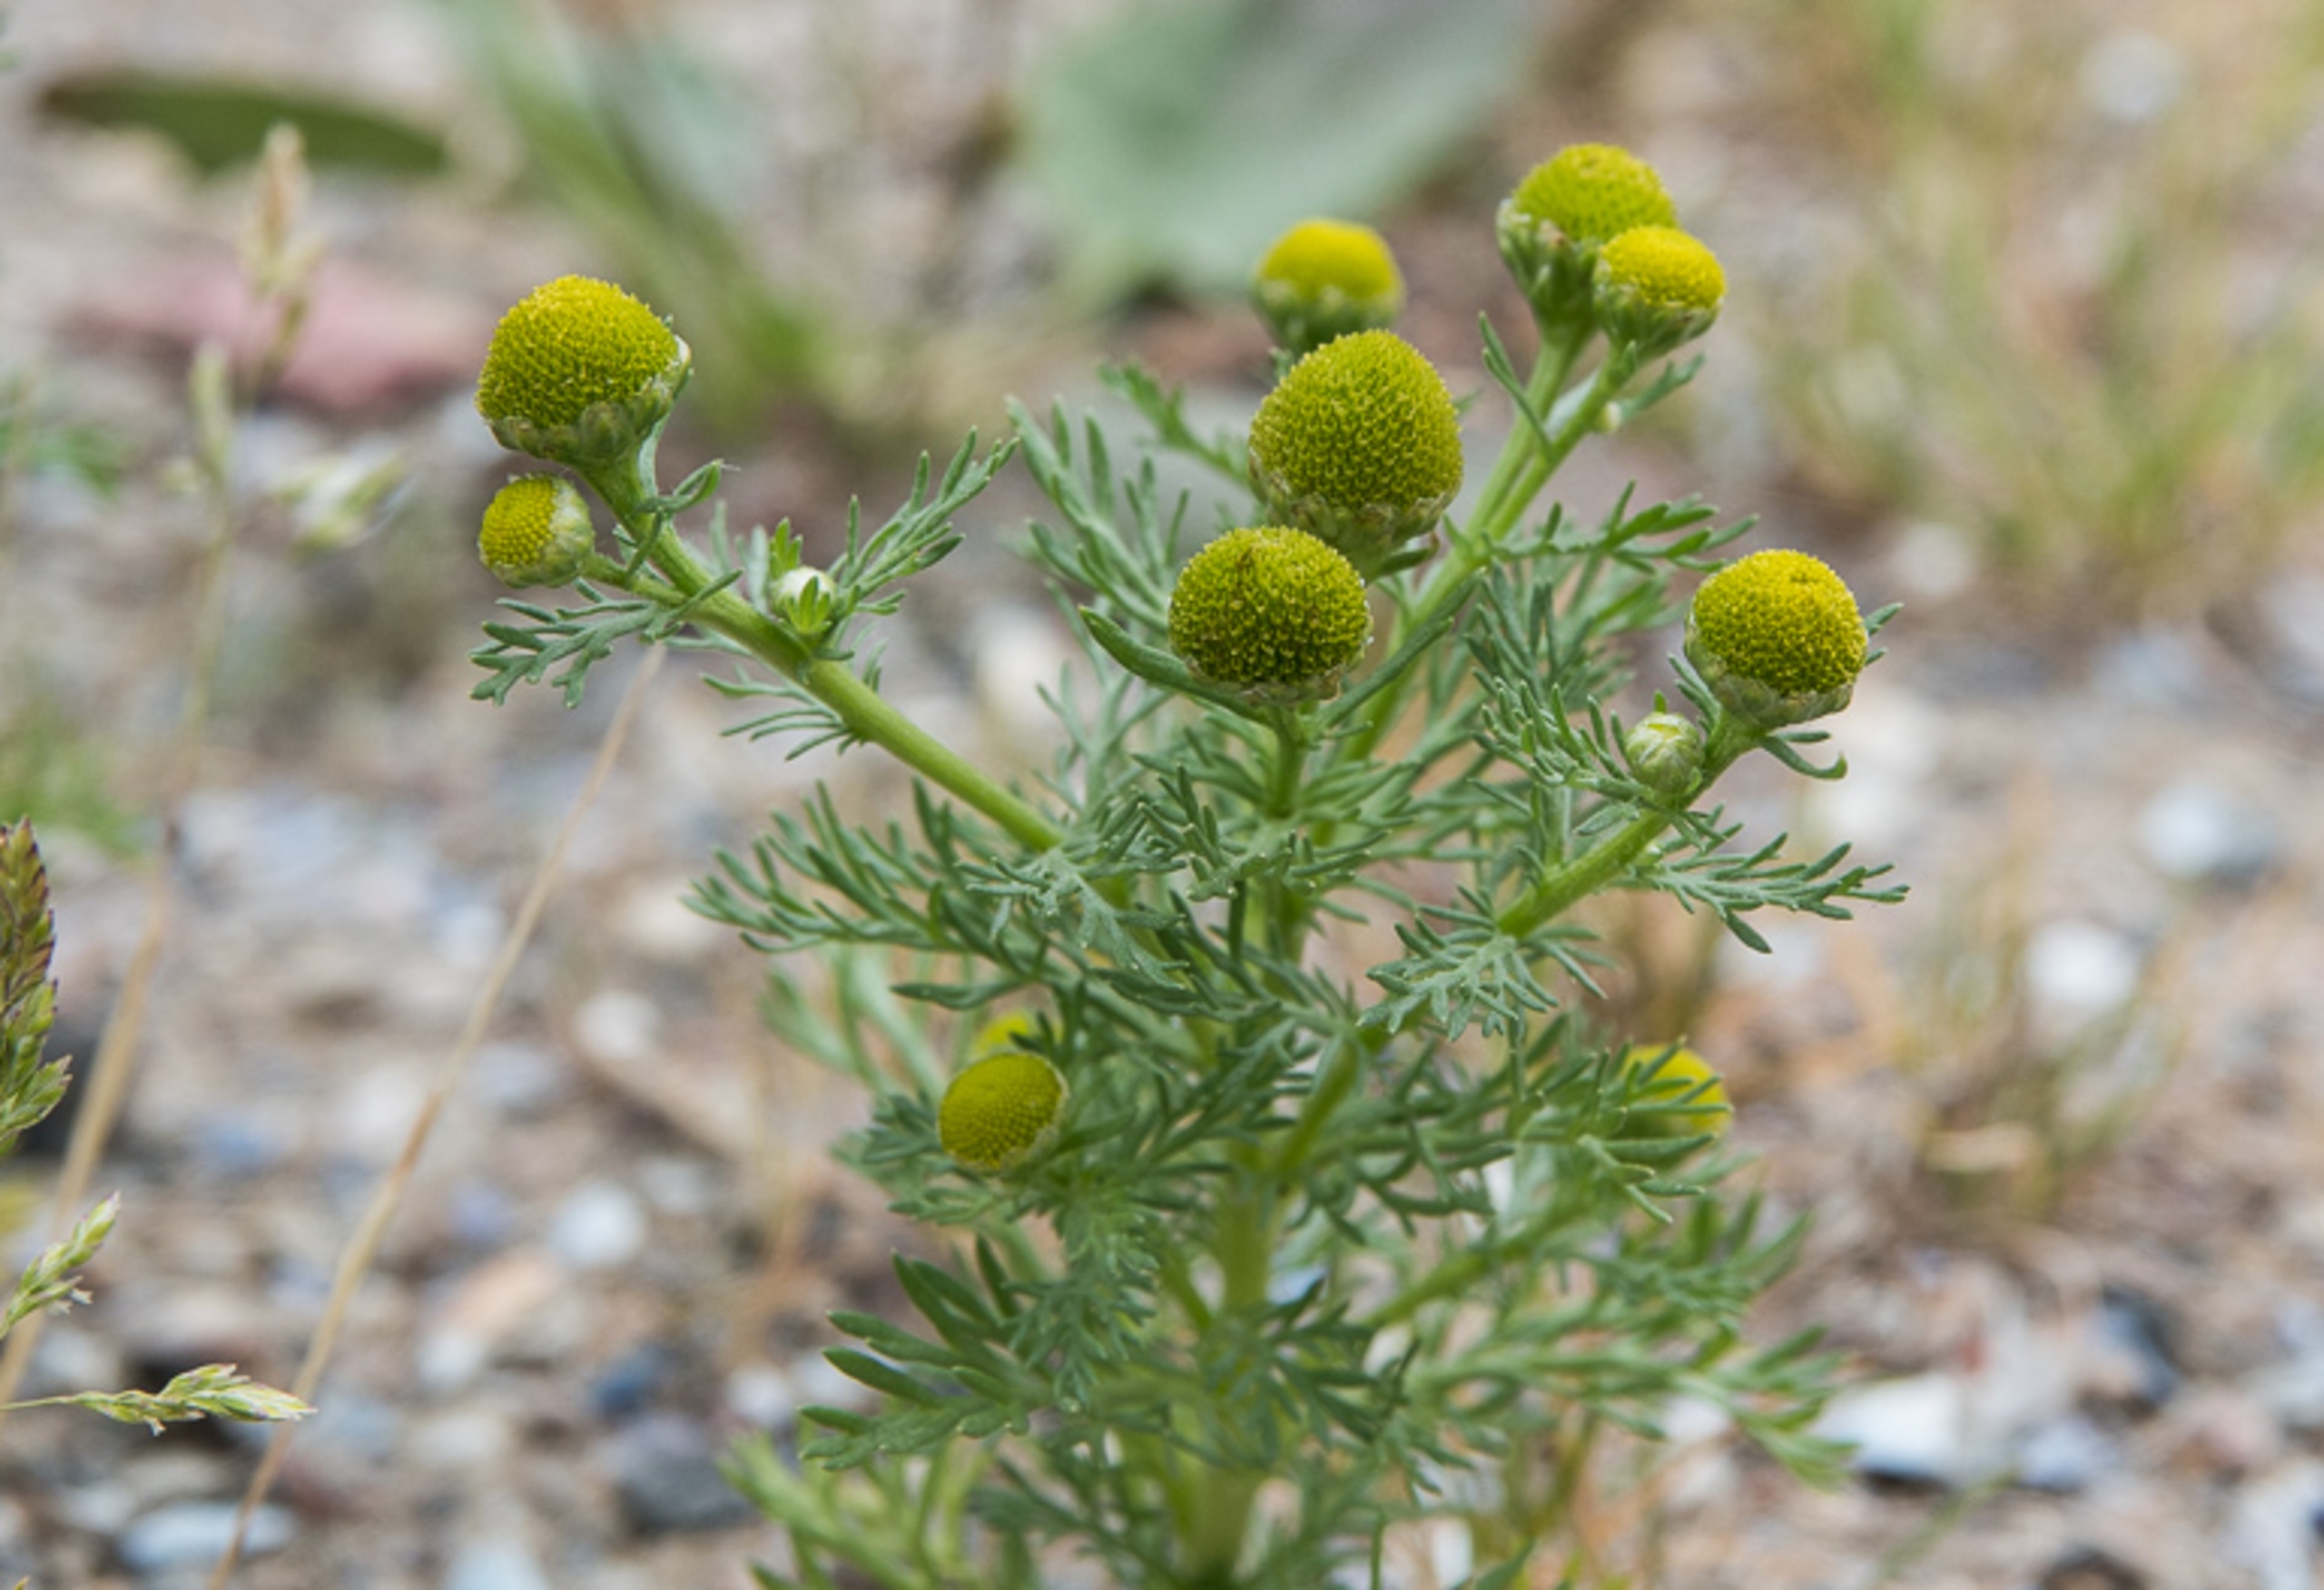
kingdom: Plantae
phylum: Tracheophyta
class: Magnoliopsida
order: Asterales
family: Asteraceae
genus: Matricaria
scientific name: Matricaria discoidea
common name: Skive-kamille
